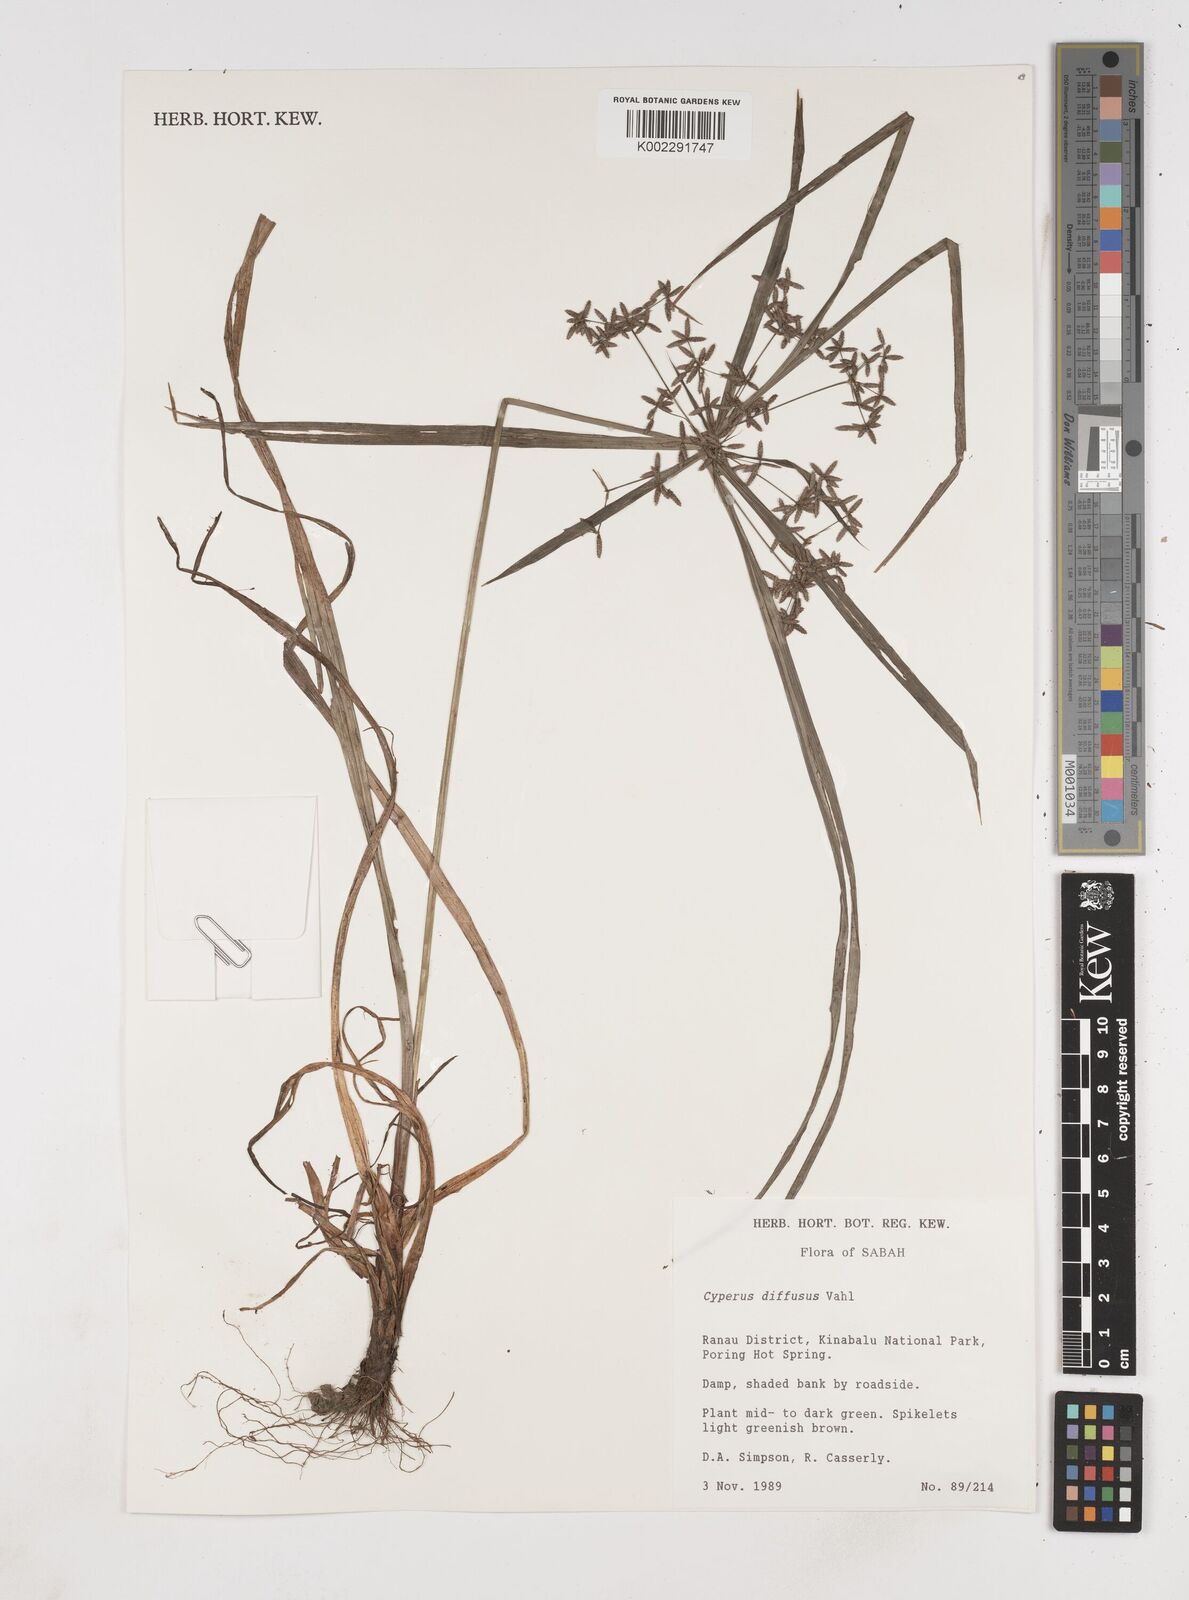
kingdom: Plantae
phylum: Tracheophyta
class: Liliopsida
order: Poales
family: Cyperaceae
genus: Cyperus
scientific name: Cyperus diffusus
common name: Dwarf umbrella grass
